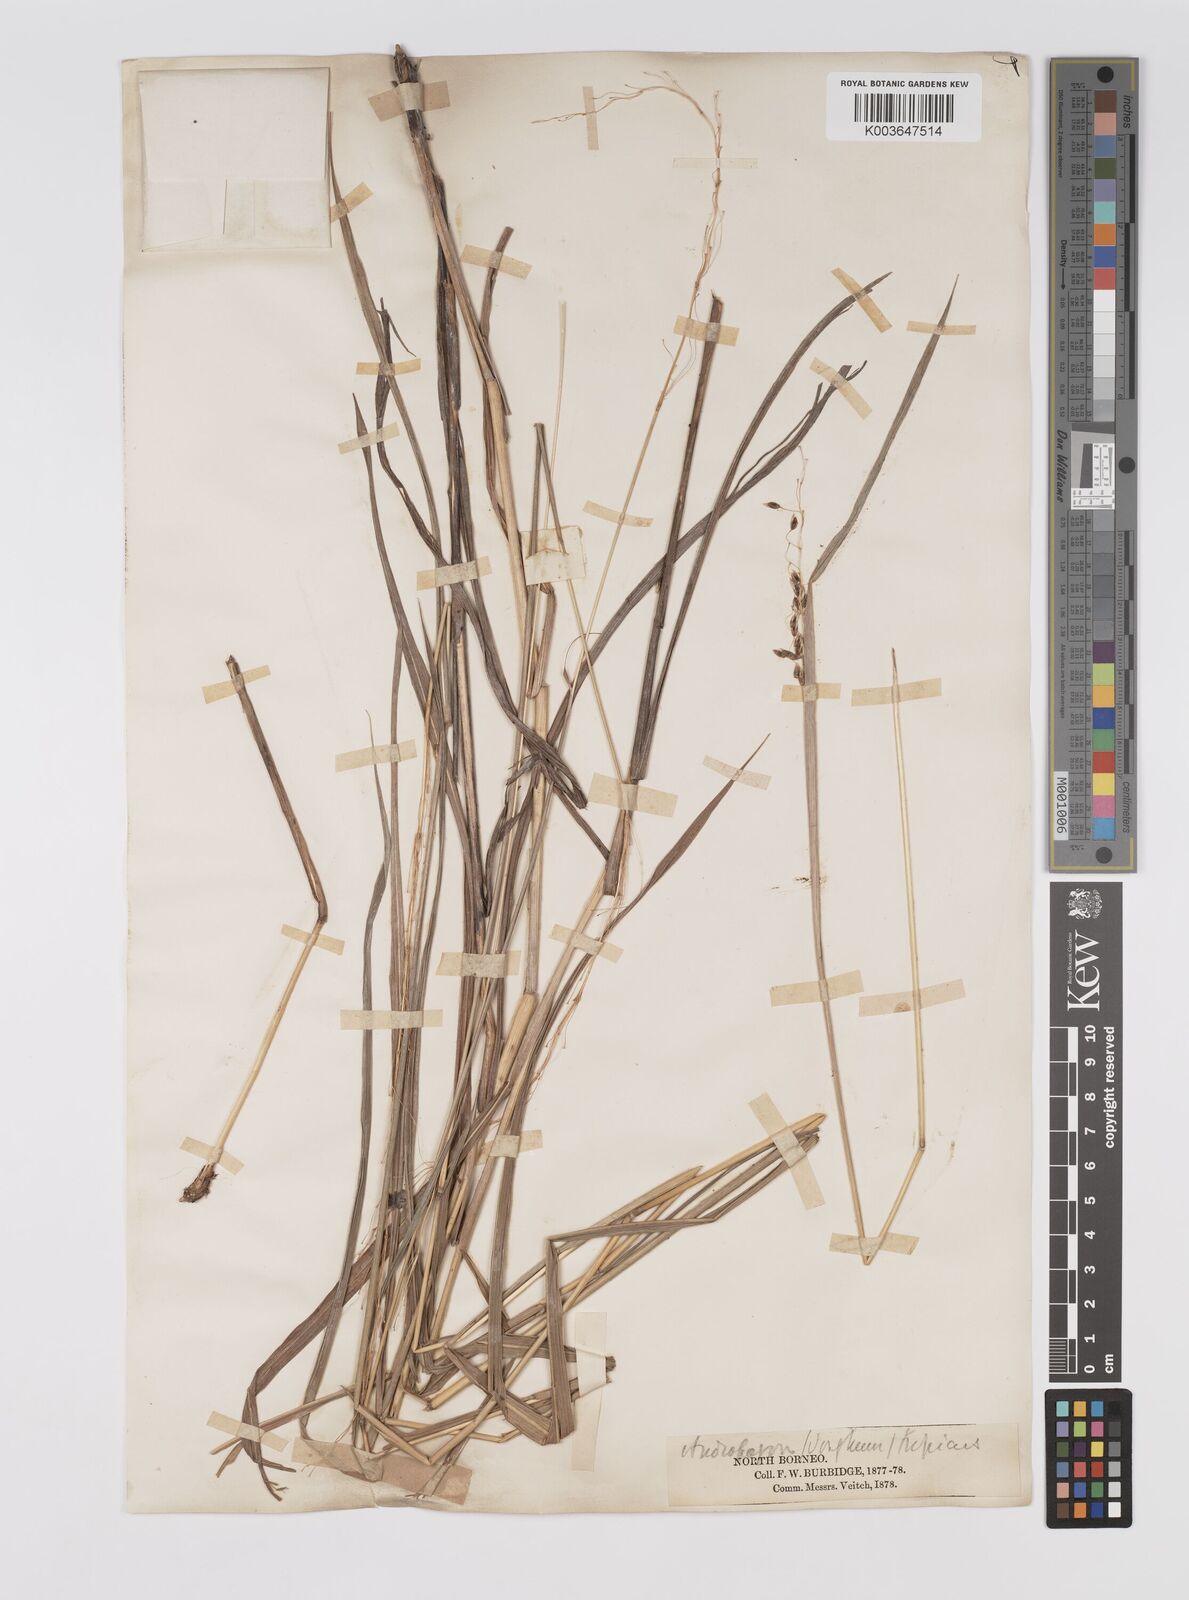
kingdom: Plantae
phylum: Tracheophyta
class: Liliopsida
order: Poales
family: Poaceae
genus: Sorghum
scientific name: Sorghum nitidum
